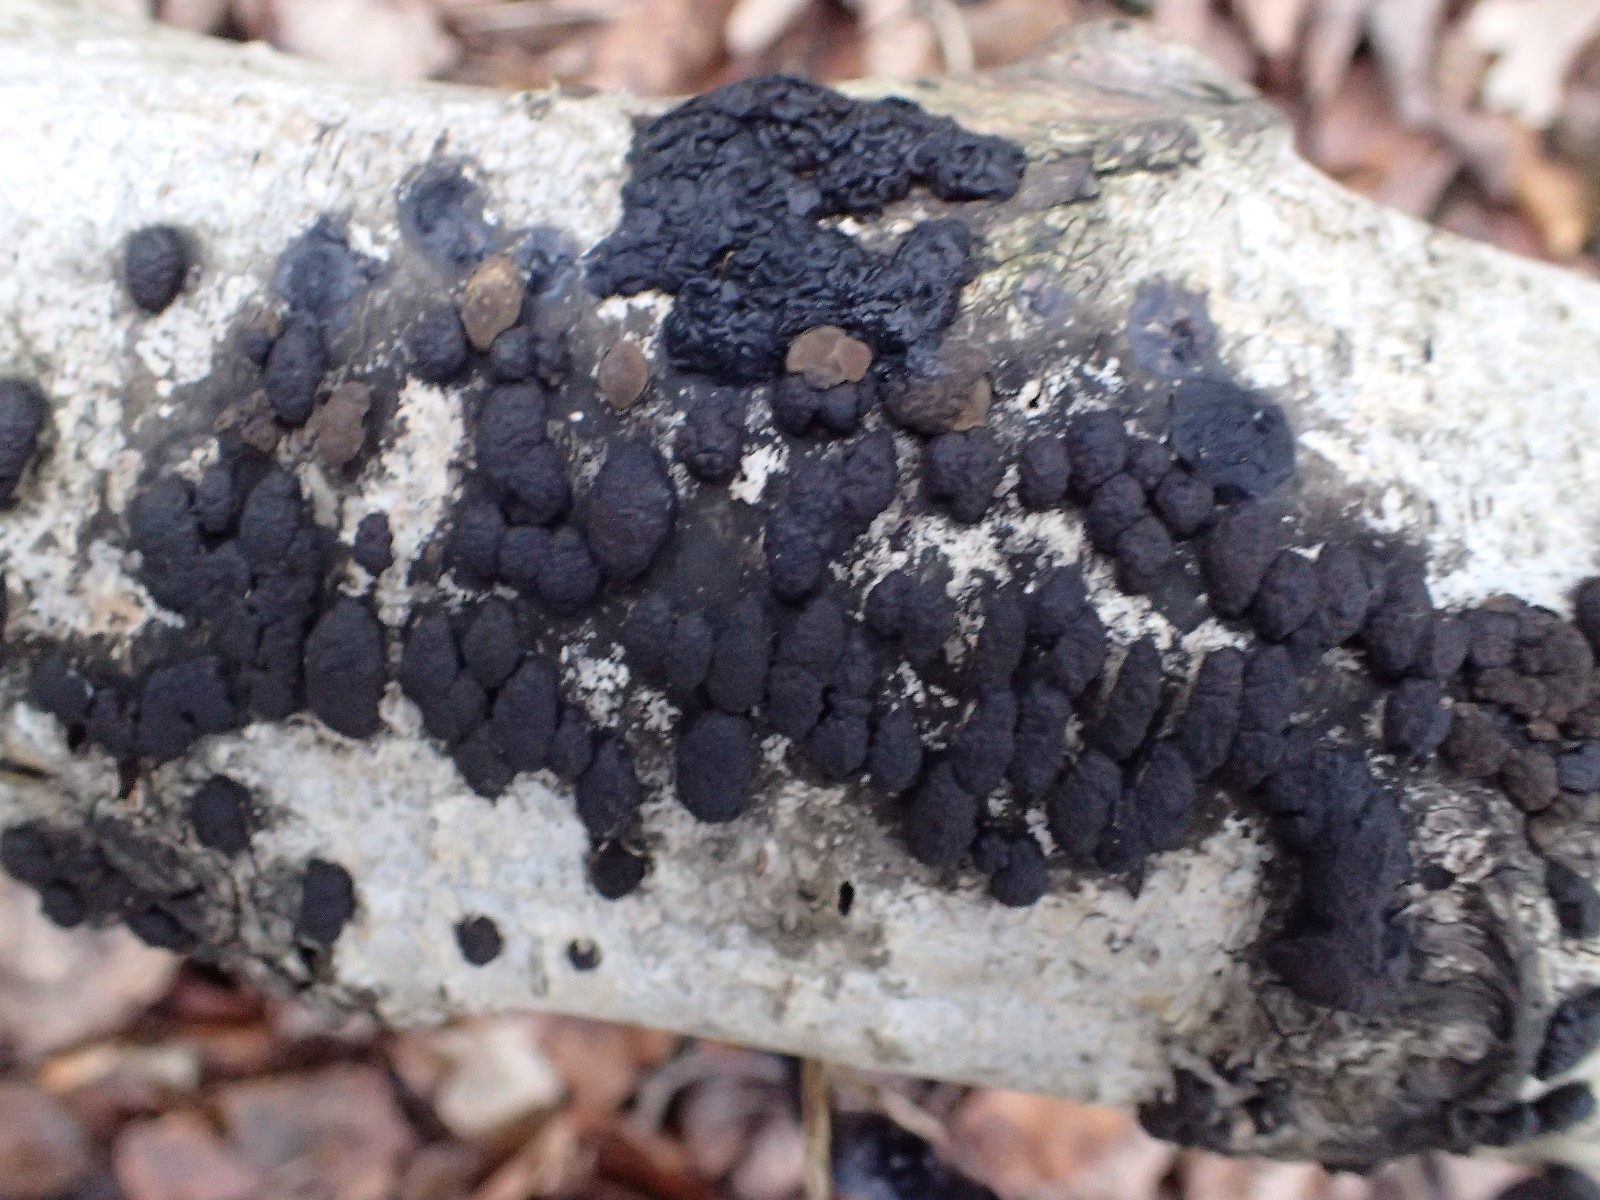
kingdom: Fungi
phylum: Ascomycota
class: Sordariomycetes
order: Xylariales
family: Hypoxylaceae
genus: Jackrogersella
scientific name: Jackrogersella multiformis
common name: foranderlig kulbær
